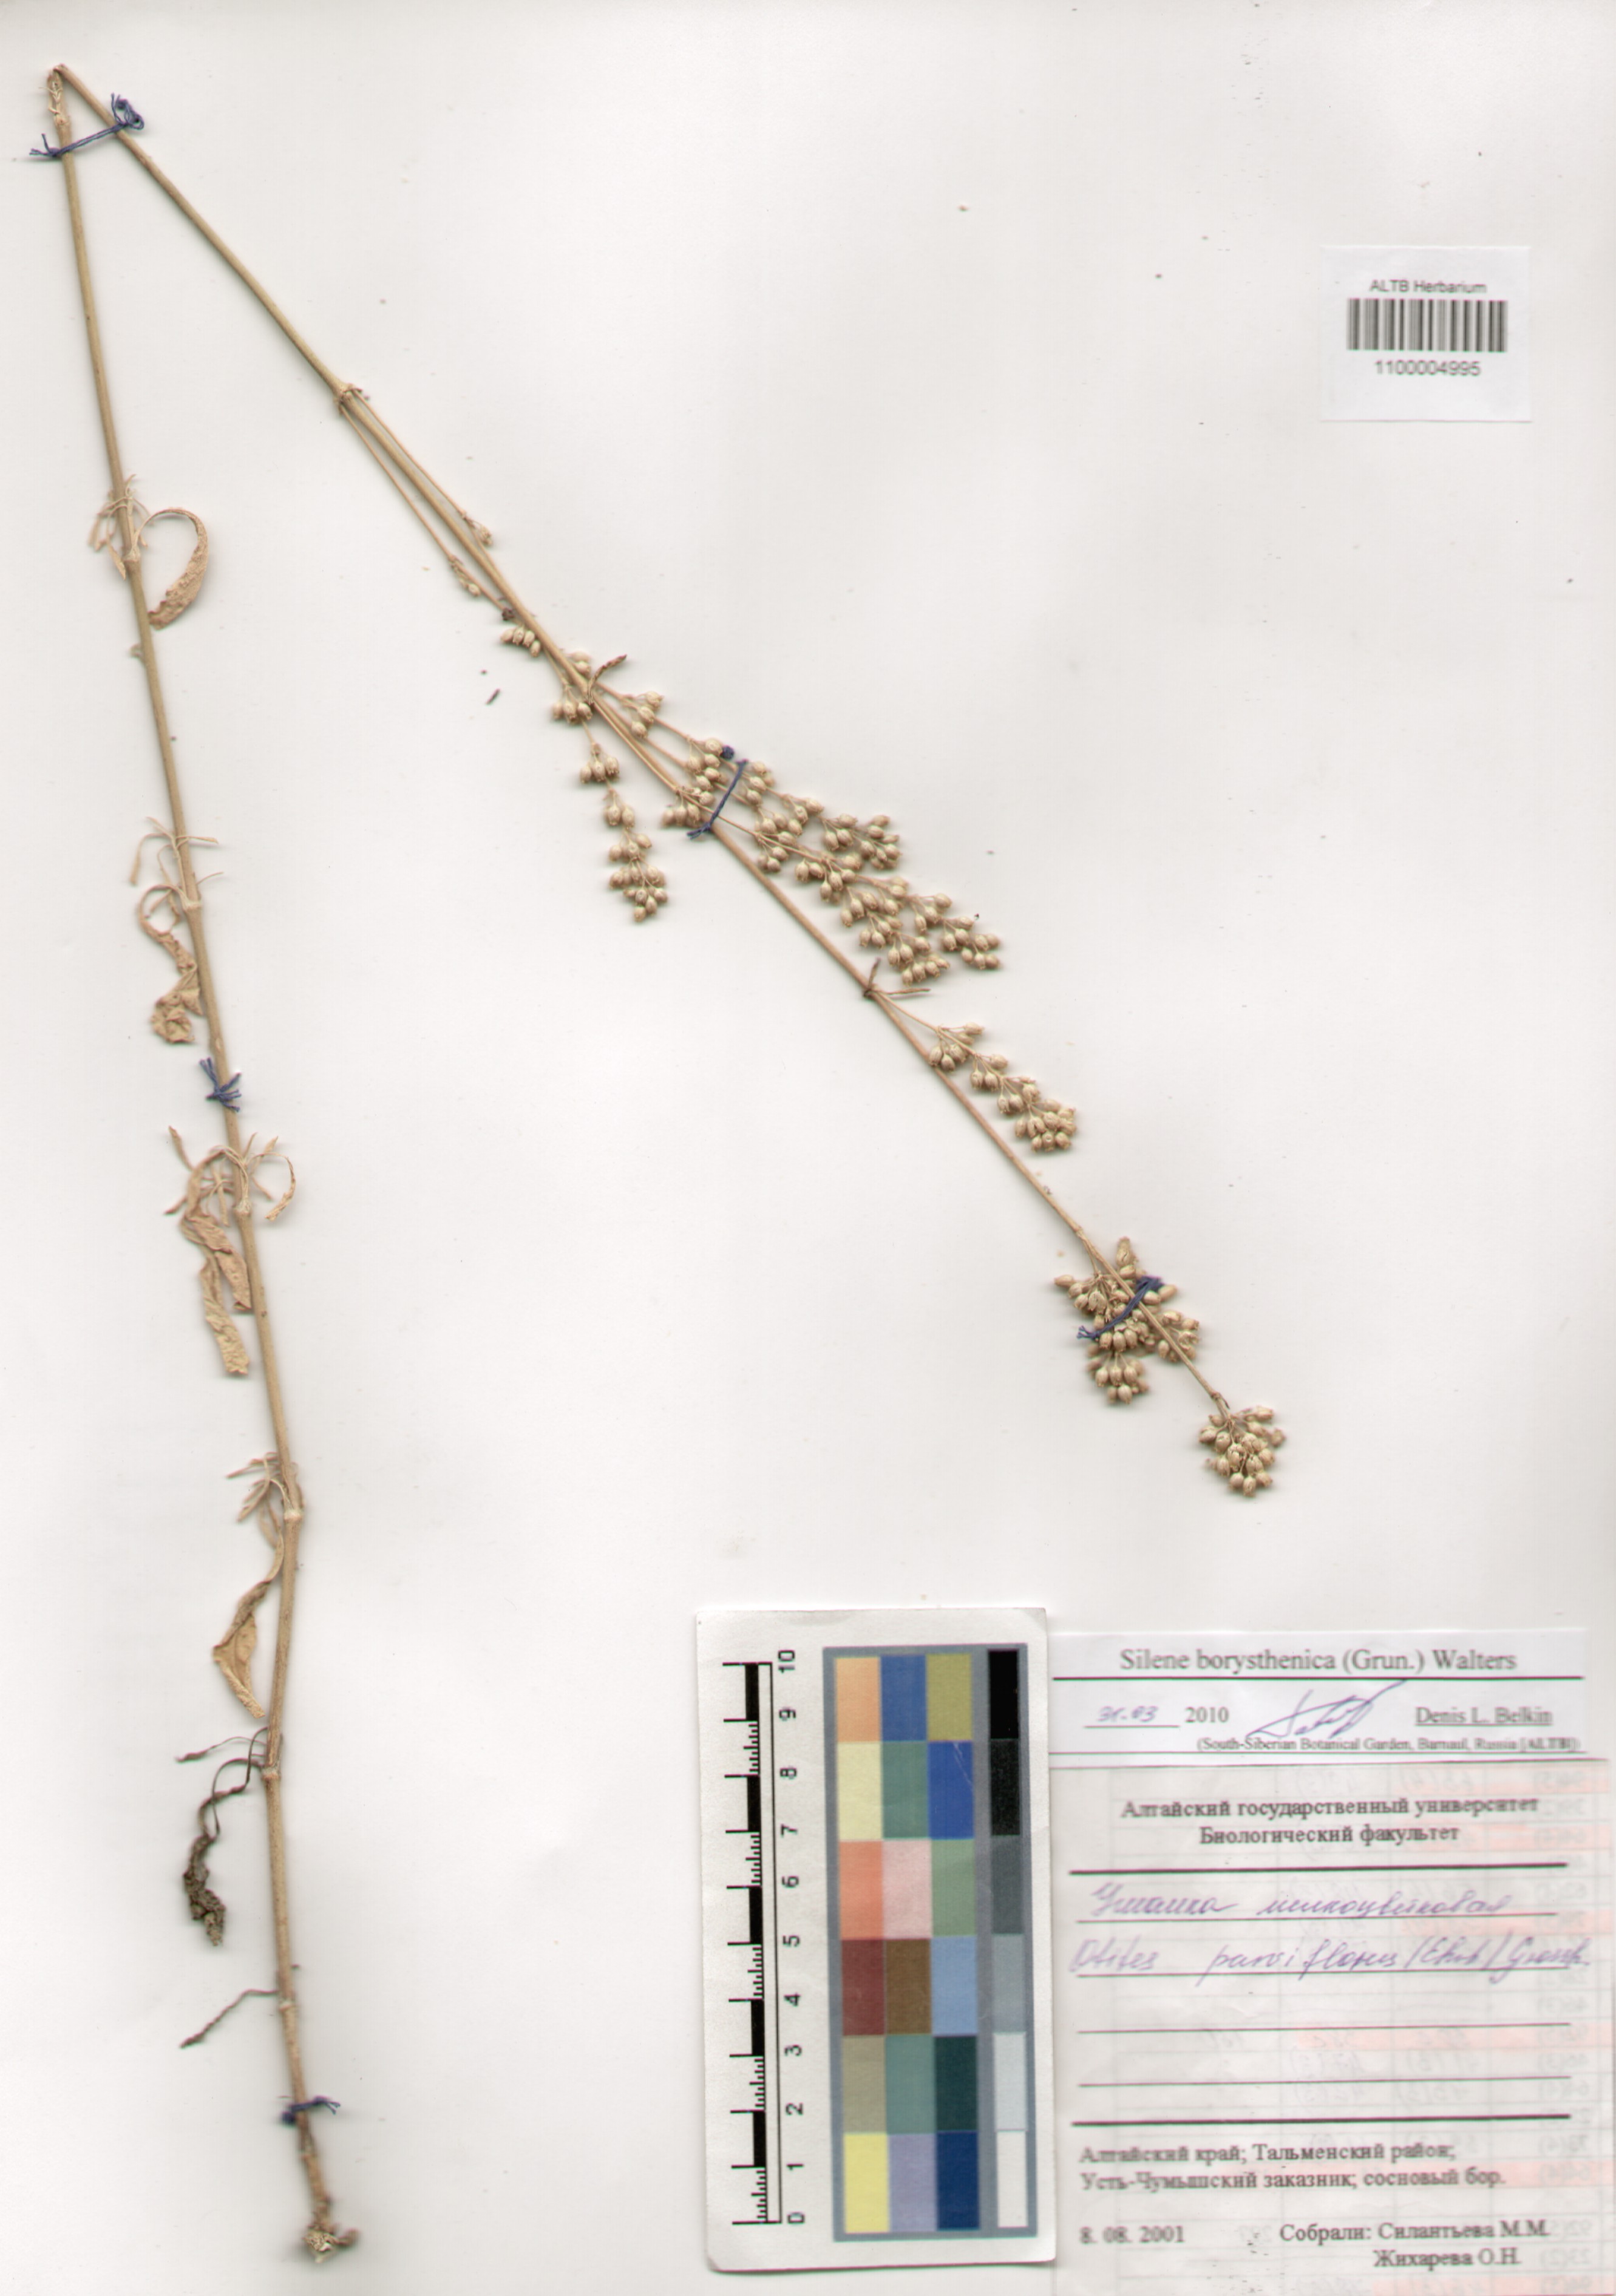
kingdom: Plantae
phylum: Tracheophyta
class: Magnoliopsida
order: Caryophyllales
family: Caryophyllaceae
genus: Silene
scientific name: Silene borysthenica
